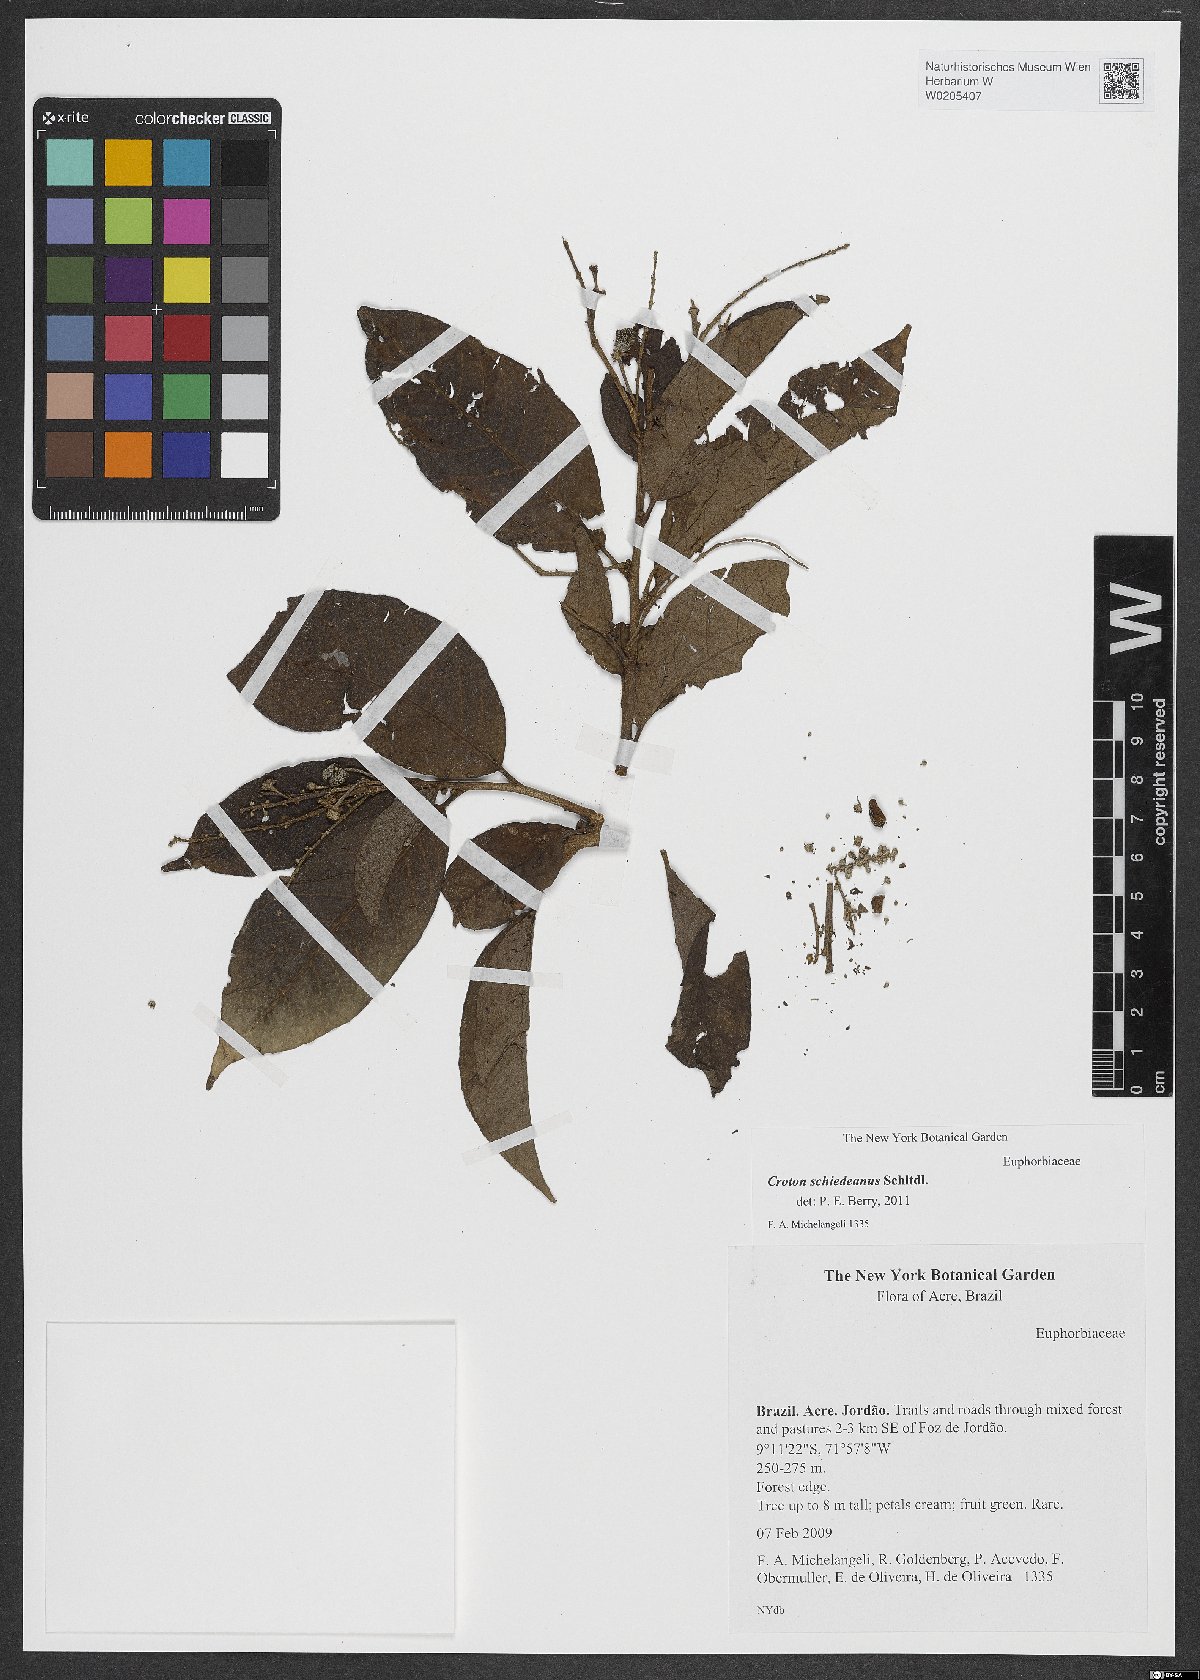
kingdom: Plantae
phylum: Tracheophyta
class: Magnoliopsida
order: Malpighiales
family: Euphorbiaceae
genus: Croton
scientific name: Croton schiedeanus
